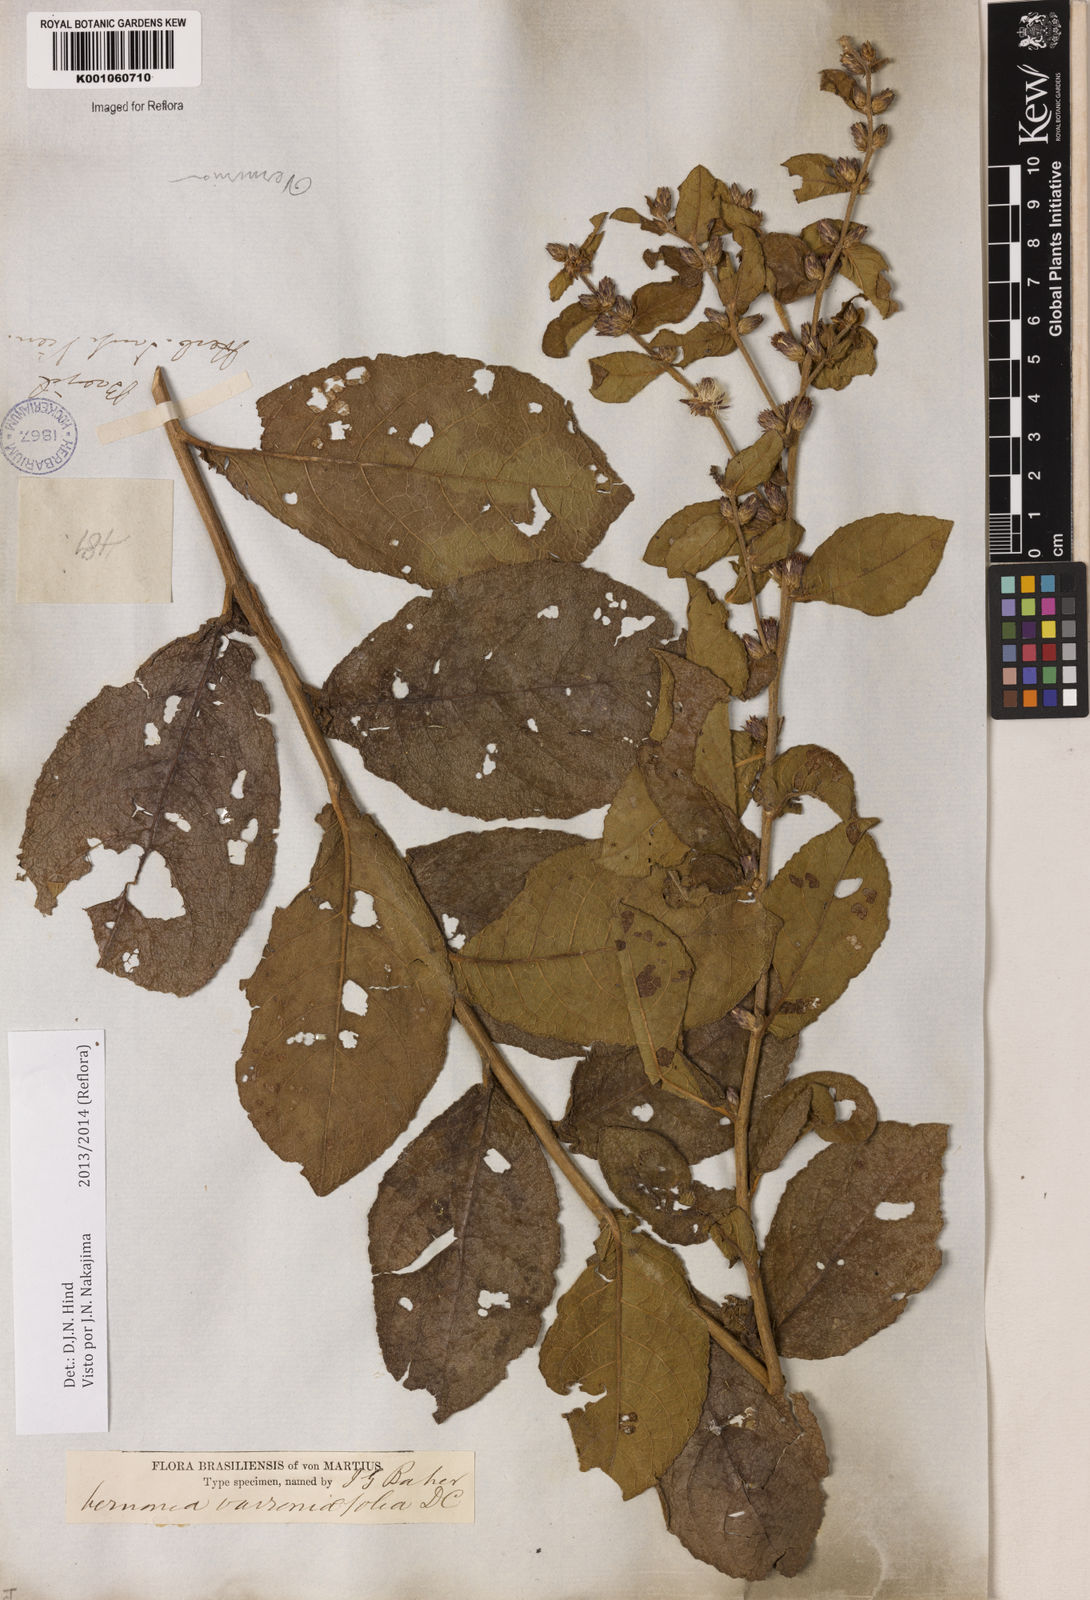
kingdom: Plantae
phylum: Tracheophyta
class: Magnoliopsida
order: Asterales
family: Asteraceae
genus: Lessingianthus
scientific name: Lessingianthus varroniifolius
